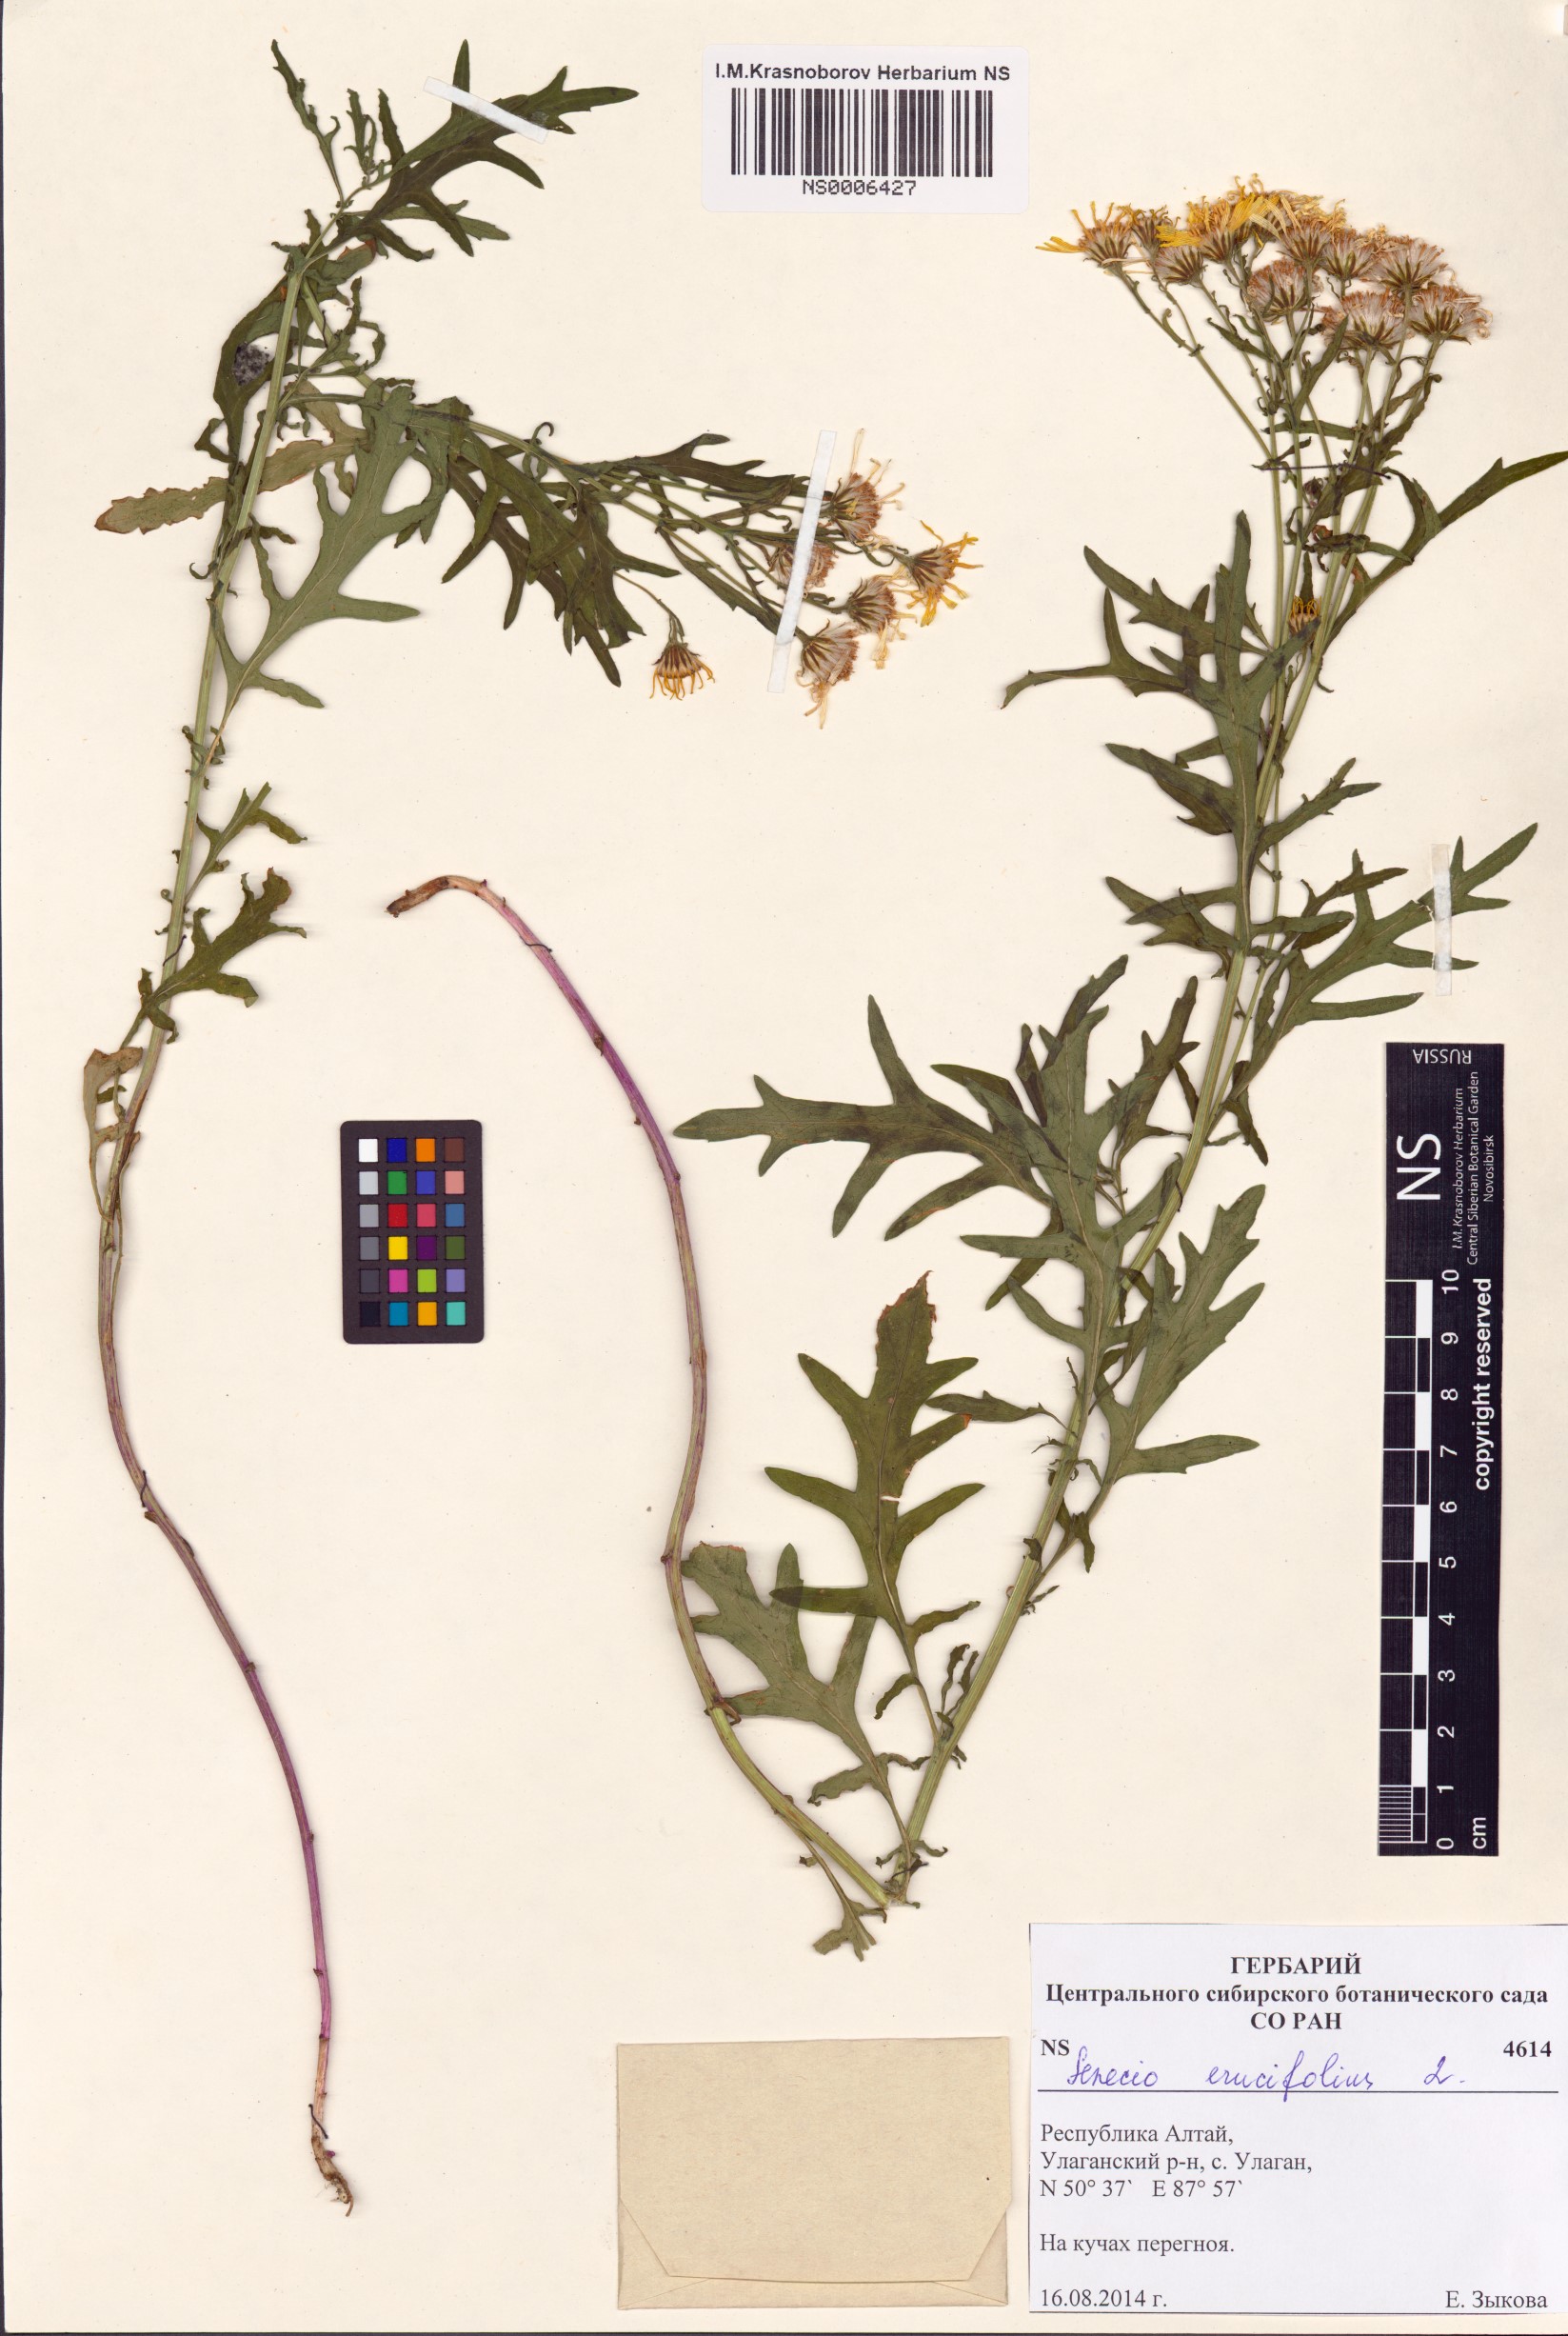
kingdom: Plantae
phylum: Tracheophyta
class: Magnoliopsida
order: Asterales
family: Asteraceae
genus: Jacobaea
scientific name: Jacobaea erucifolia
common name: Hoary ragwort
